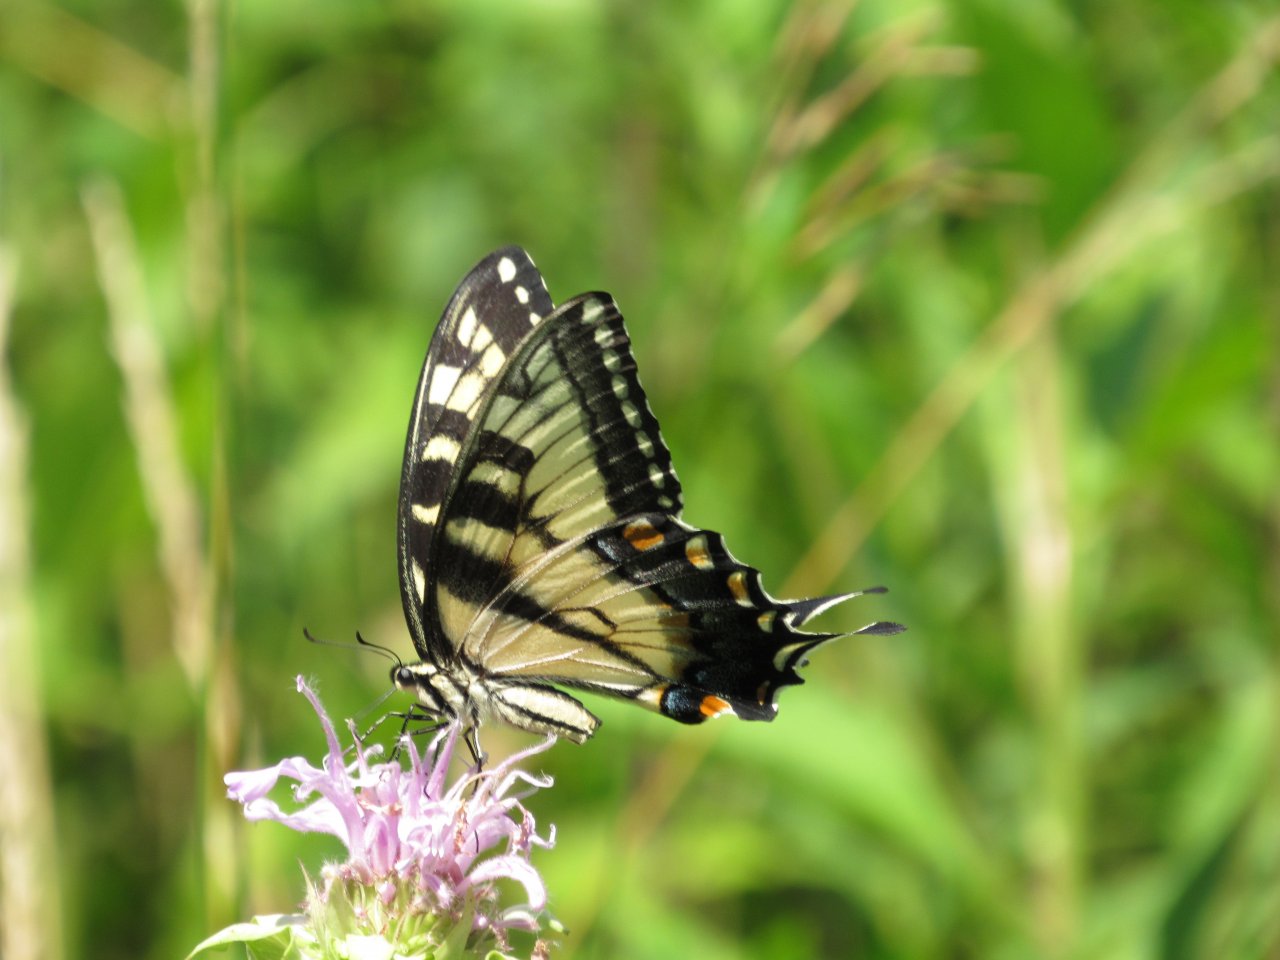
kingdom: Animalia
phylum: Arthropoda
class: Insecta
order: Lepidoptera
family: Papilionidae
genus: Pterourus
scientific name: Pterourus glaucus
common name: Eastern Tiger Swallowtail
